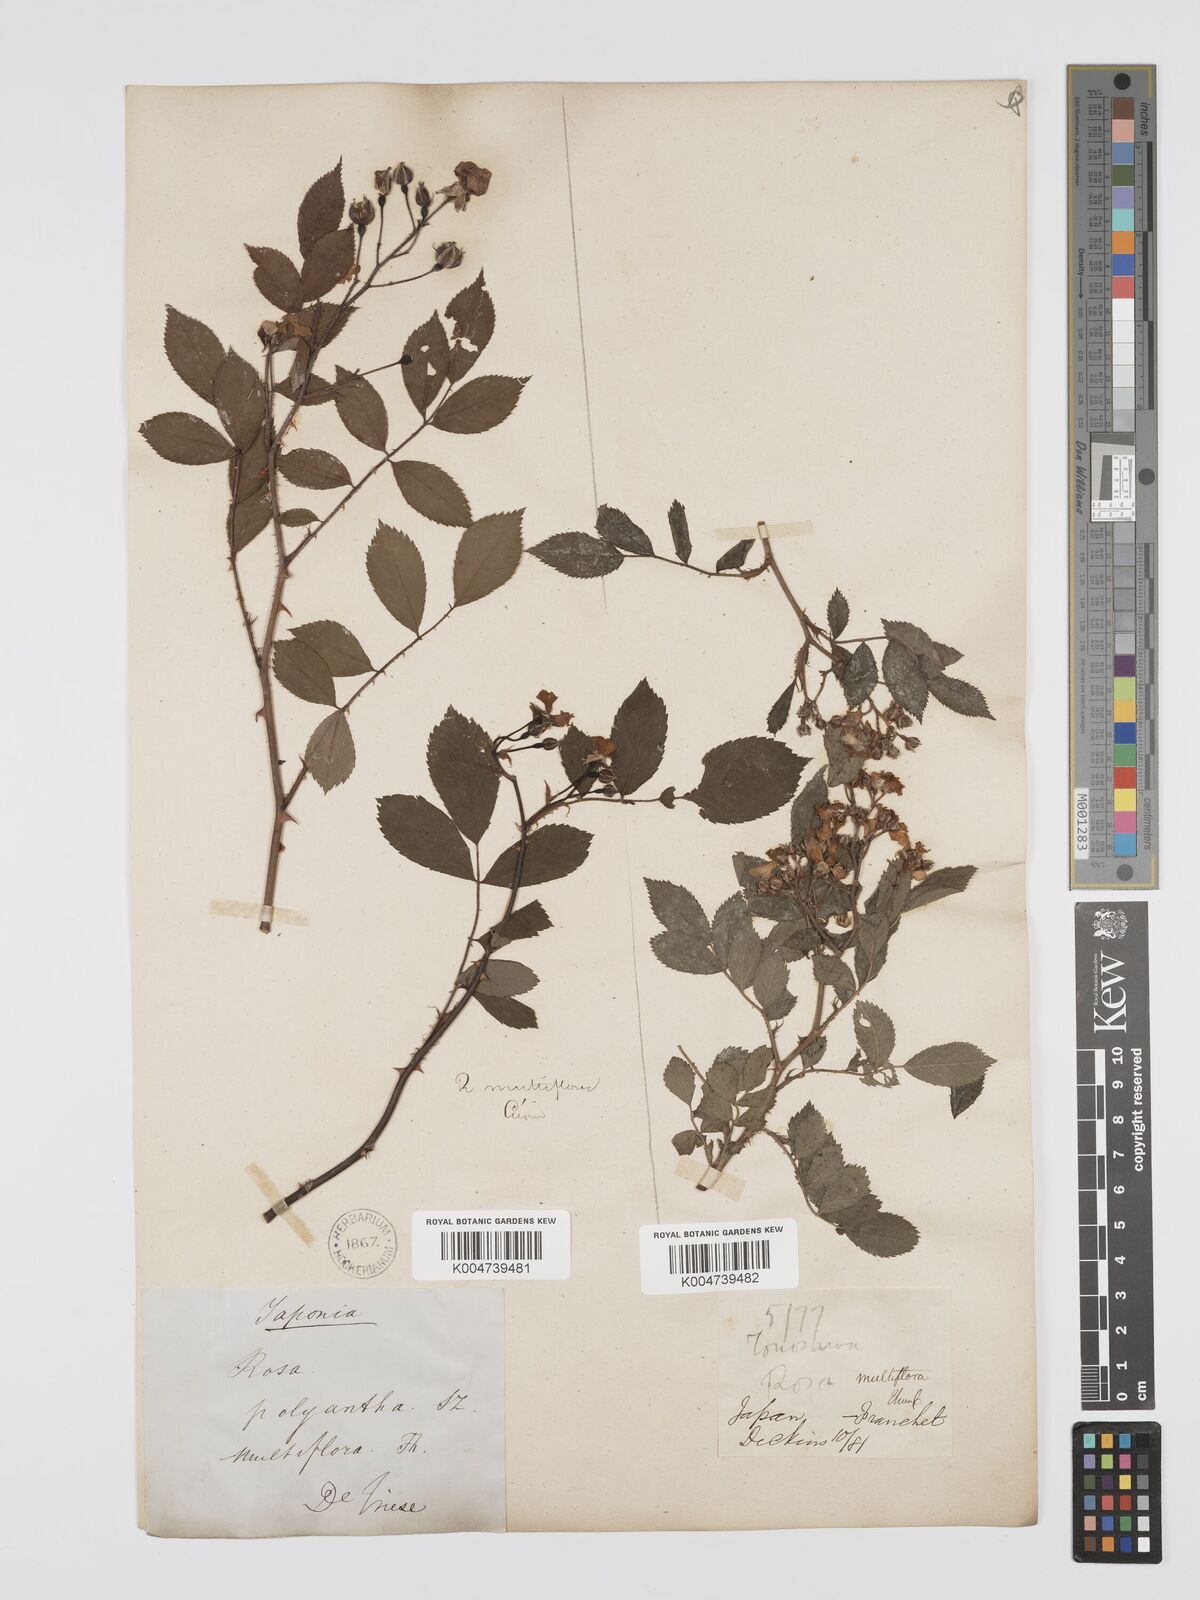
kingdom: Plantae
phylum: Tracheophyta
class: Magnoliopsida
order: Rosales
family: Rosaceae
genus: Rosa
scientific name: Rosa
